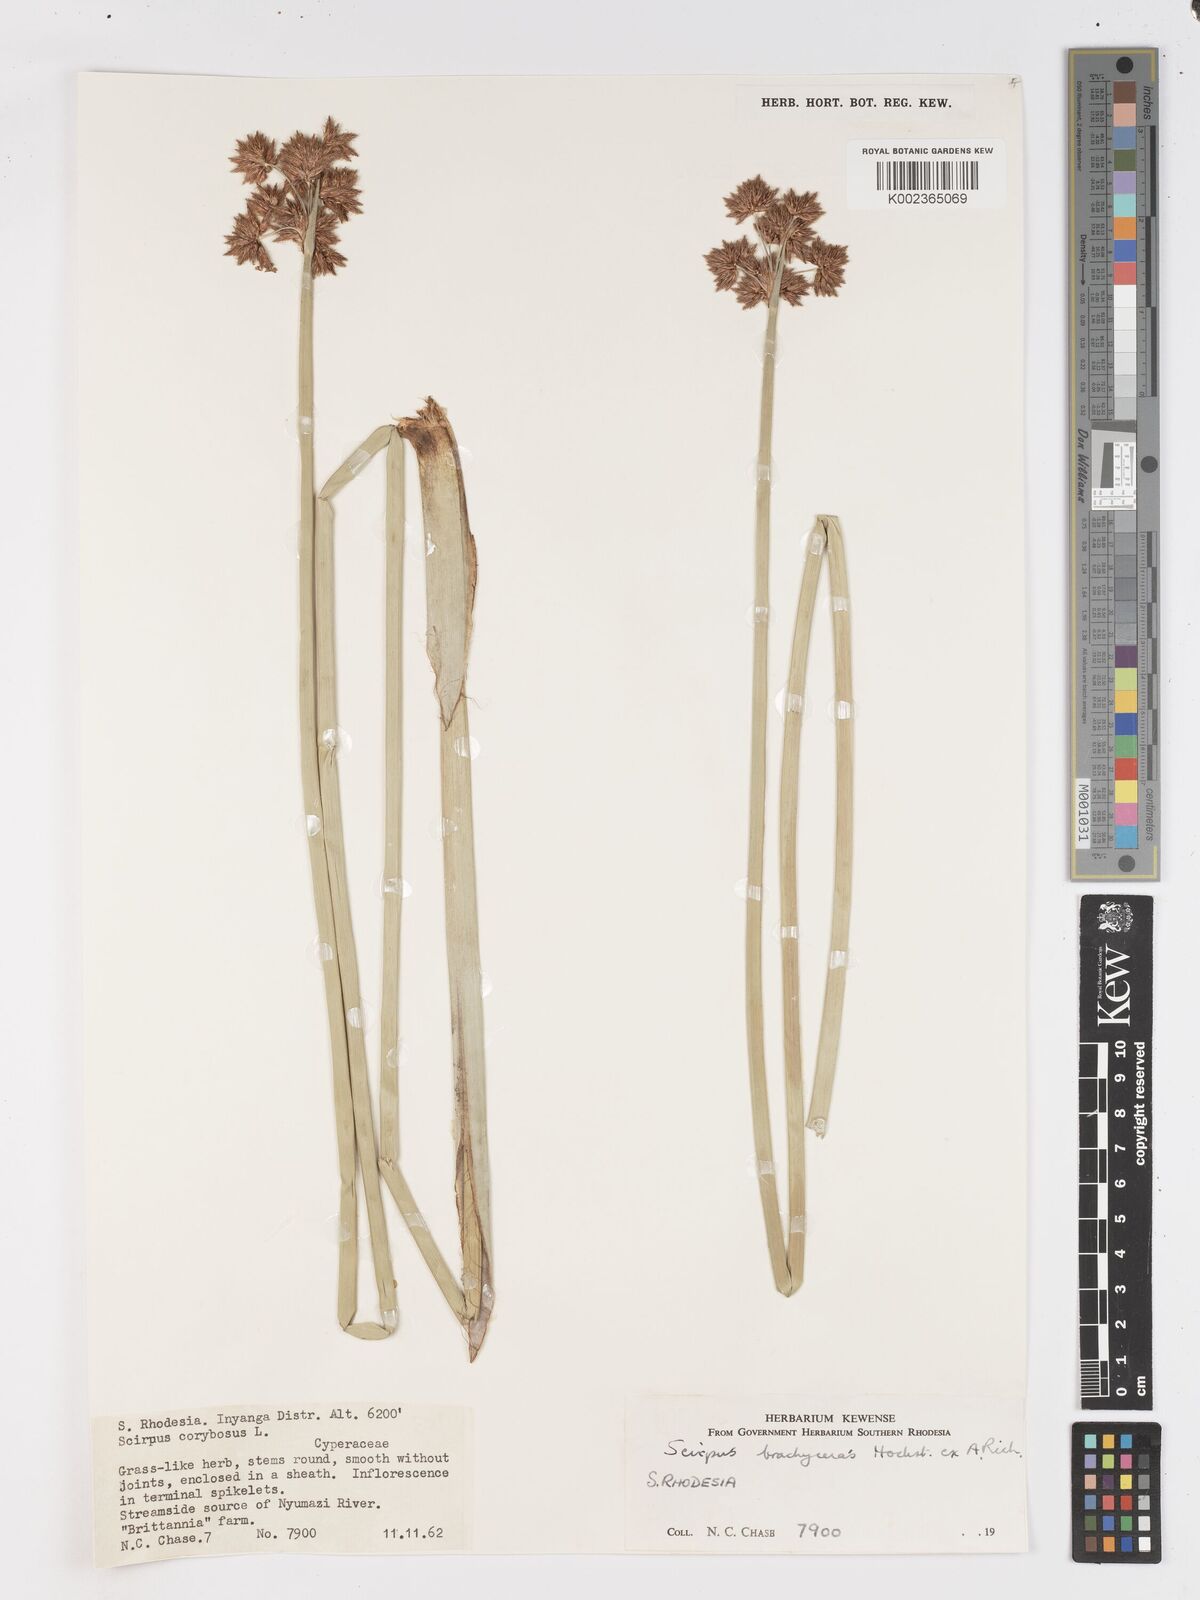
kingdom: Plantae
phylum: Tracheophyta
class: Liliopsida
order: Poales
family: Cyperaceae
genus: Schoenoplectiella
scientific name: Schoenoplectiella brachyceras
